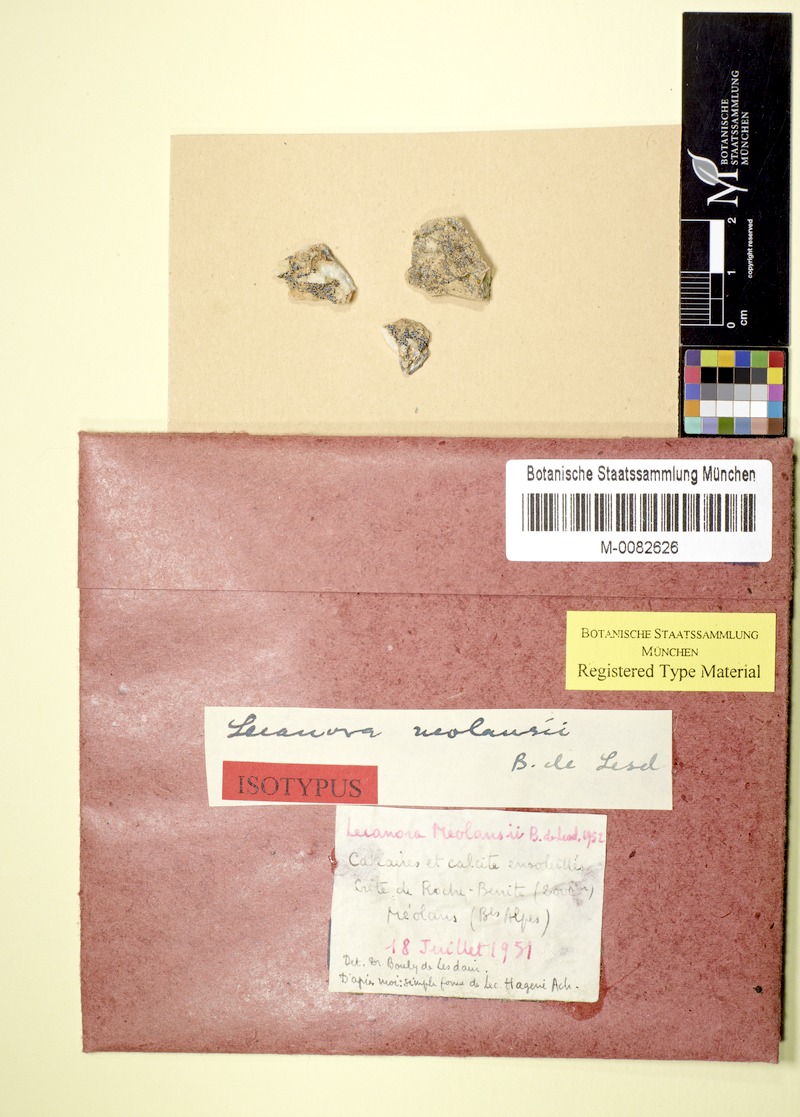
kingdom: Fungi
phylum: Ascomycota
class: Lecanoromycetes
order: Lecanorales
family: Lecanoraceae
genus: Polyozosia
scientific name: Polyozosia invadens
